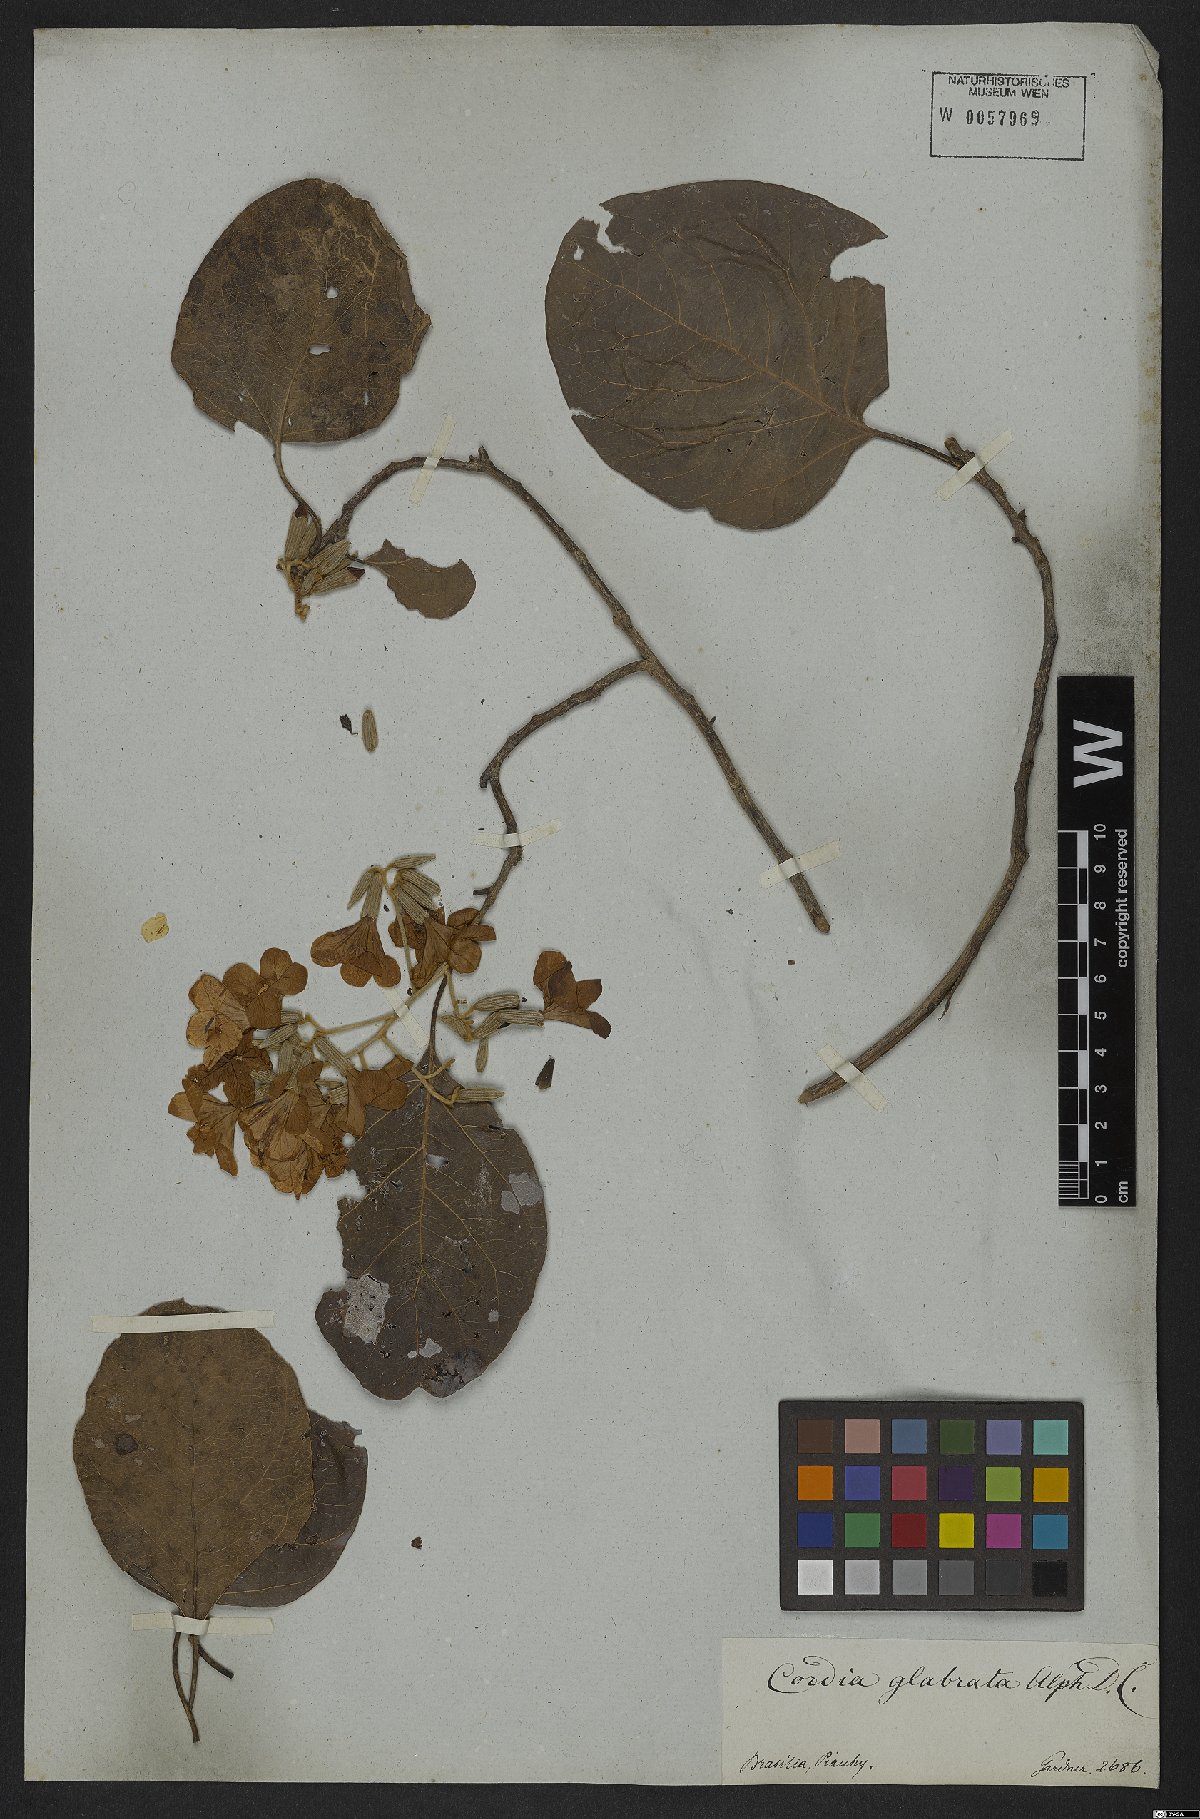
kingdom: Plantae
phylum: Tracheophyta
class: Magnoliopsida
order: Boraginales
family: Cordiaceae
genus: Cordia
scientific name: Cordia glabrata
